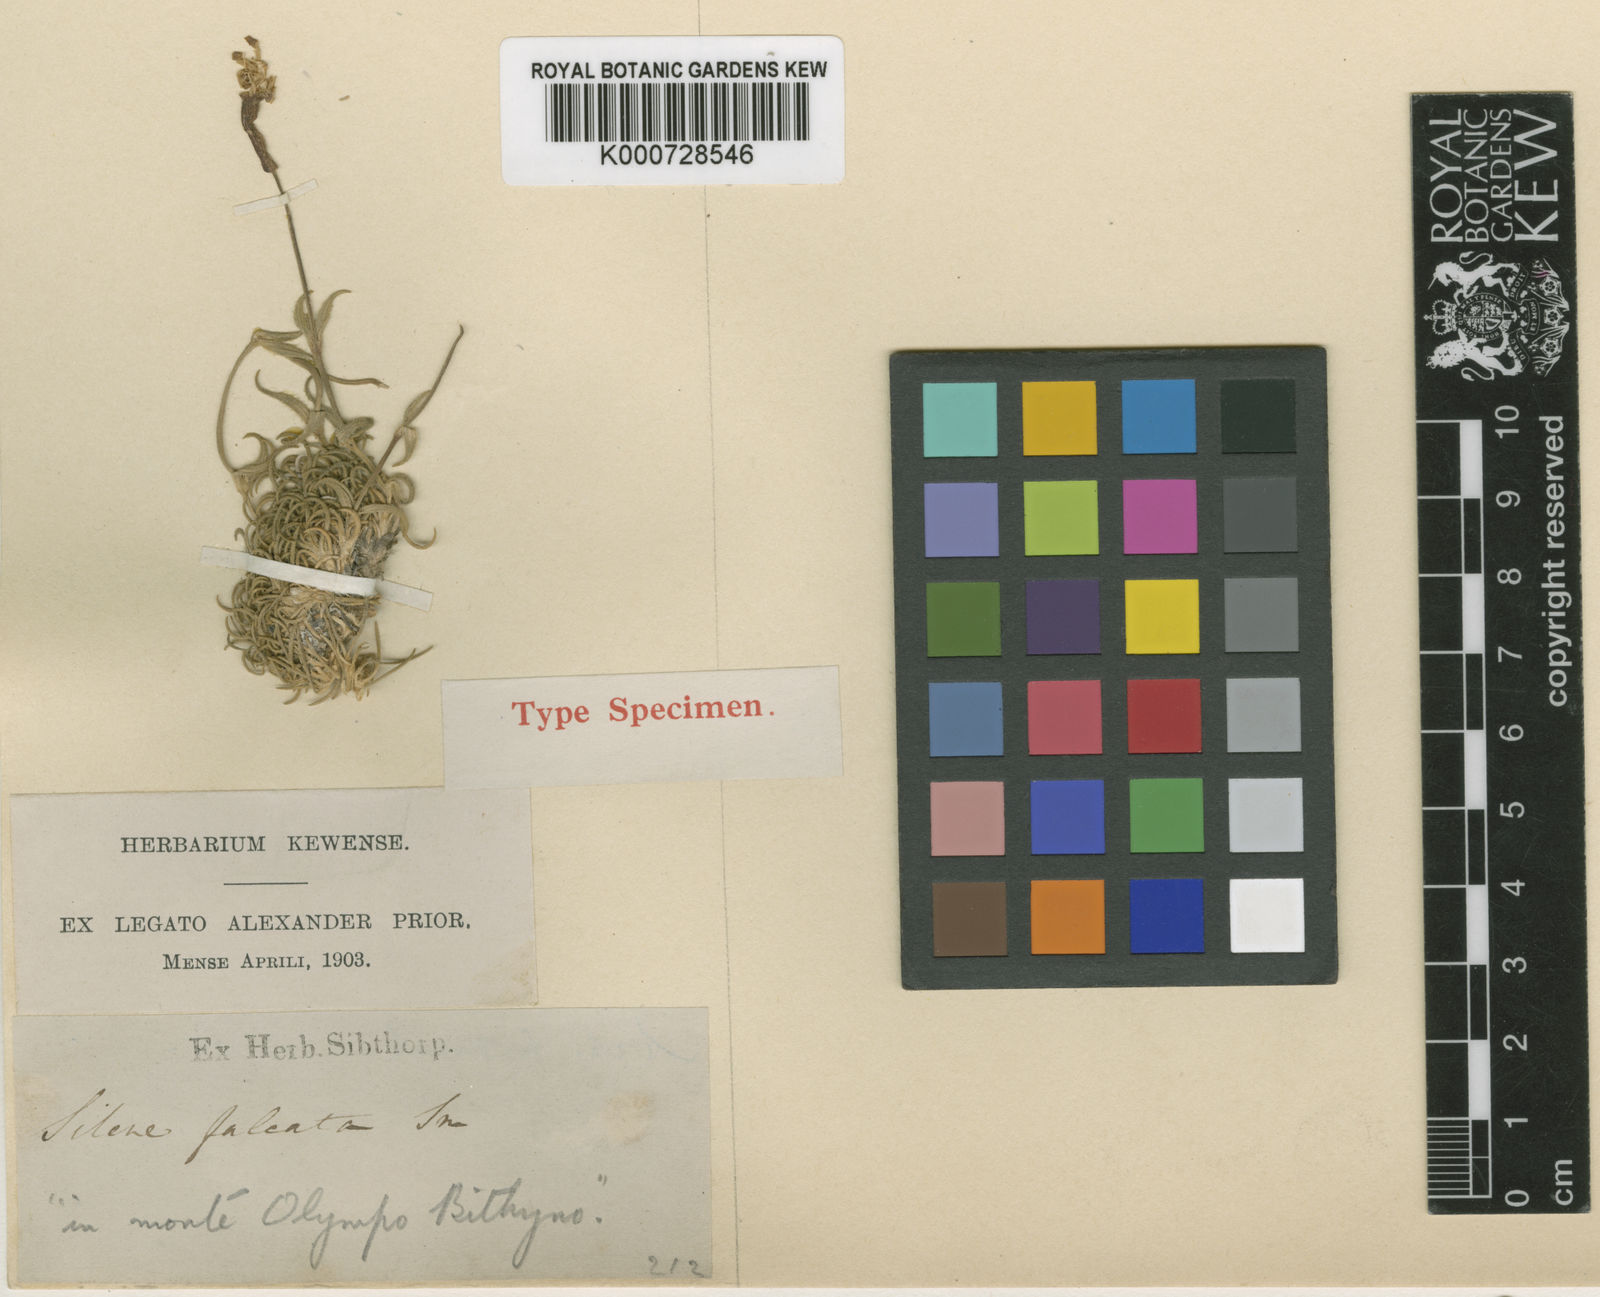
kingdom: Plantae
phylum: Tracheophyta
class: Magnoliopsida
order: Caryophyllales
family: Caryophyllaceae
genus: Silene
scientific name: Silene falcata
